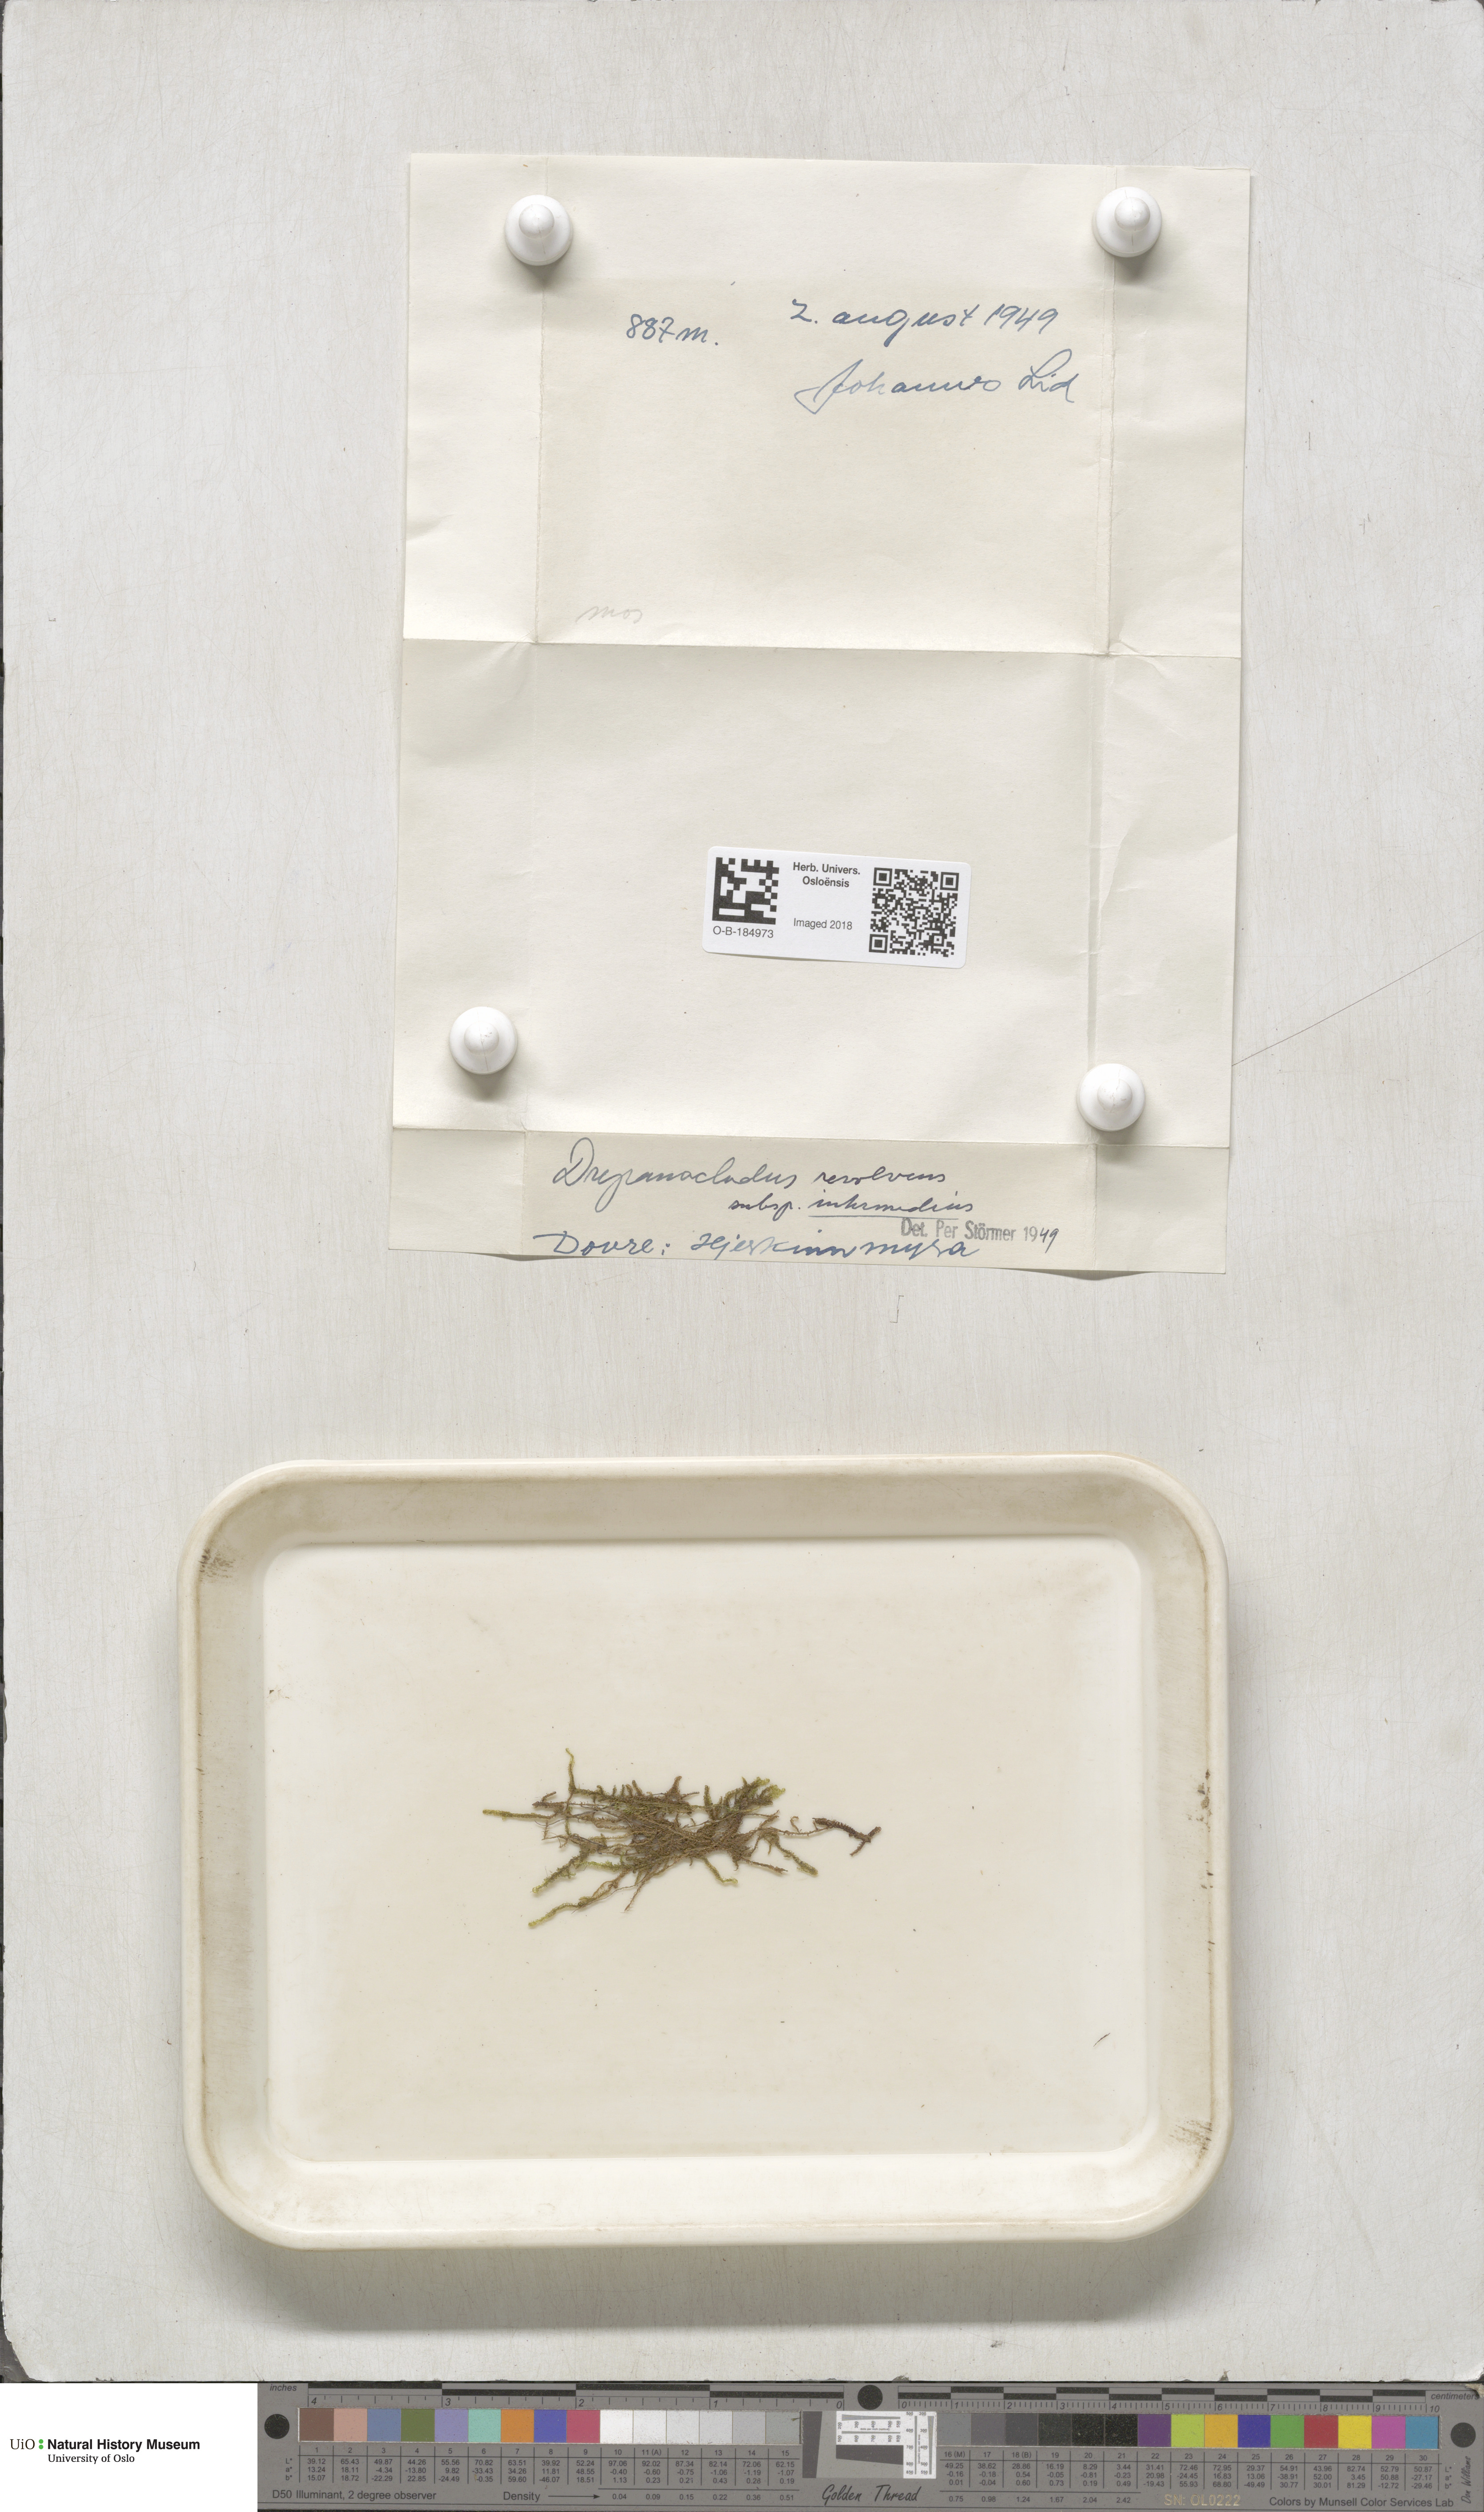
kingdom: Plantae
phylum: Bryophyta
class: Bryopsida
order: Hypnales
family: Scorpidiaceae
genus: Scorpidium
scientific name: Scorpidium revolvens
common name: Rusty hook moss
